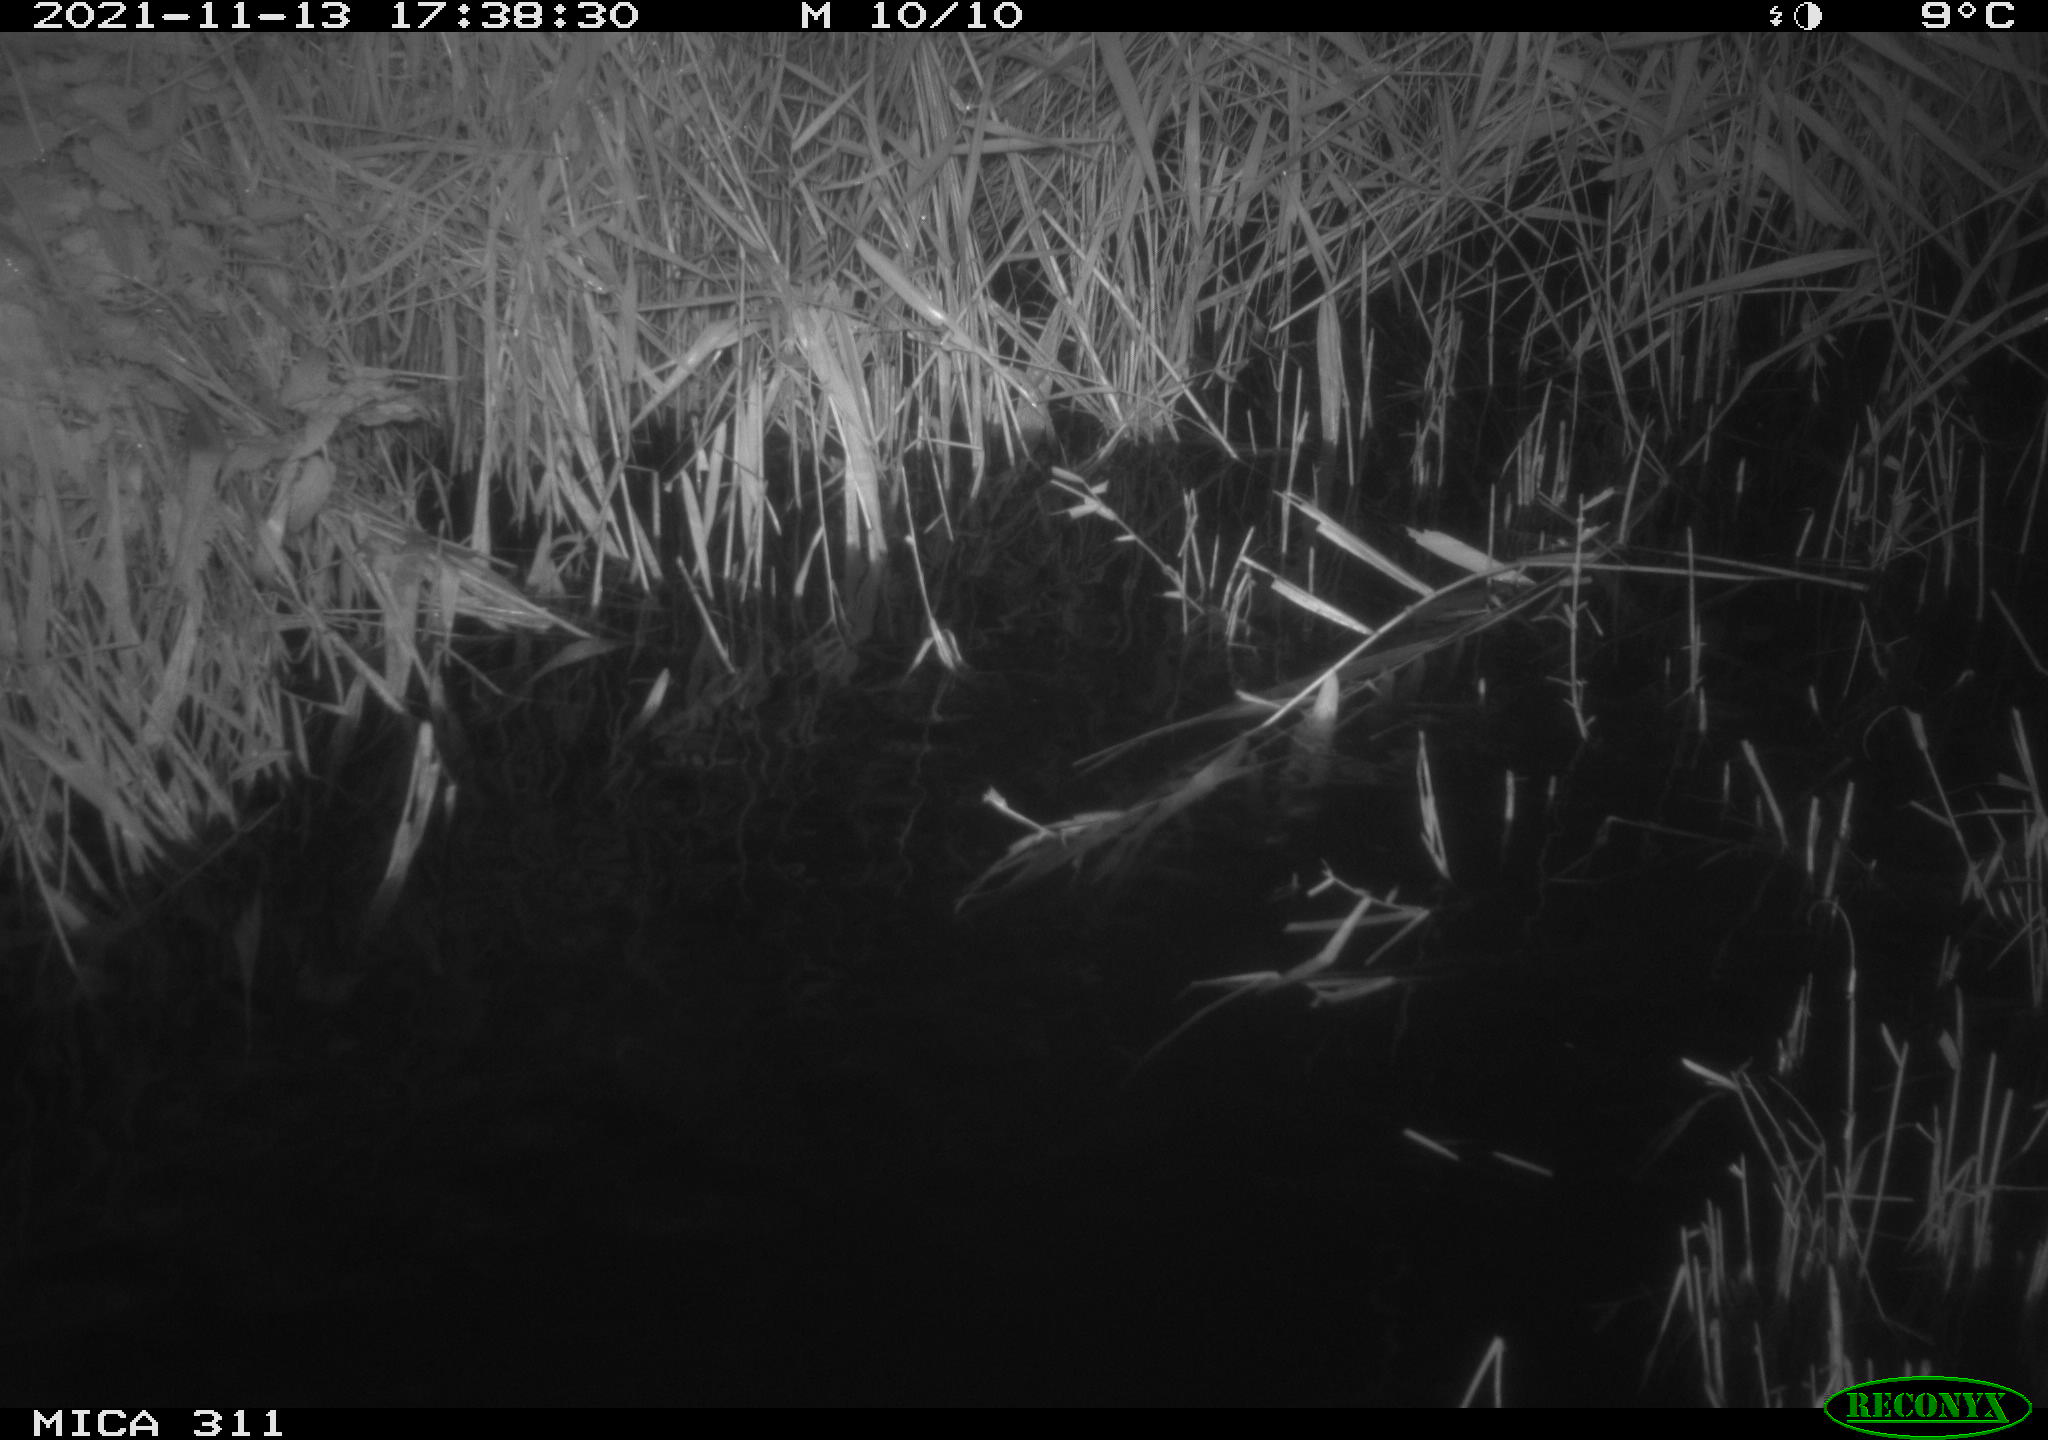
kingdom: Animalia
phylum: Chordata
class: Mammalia
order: Rodentia
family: Muridae
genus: Rattus
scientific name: Rattus norvegicus
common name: Brown rat
